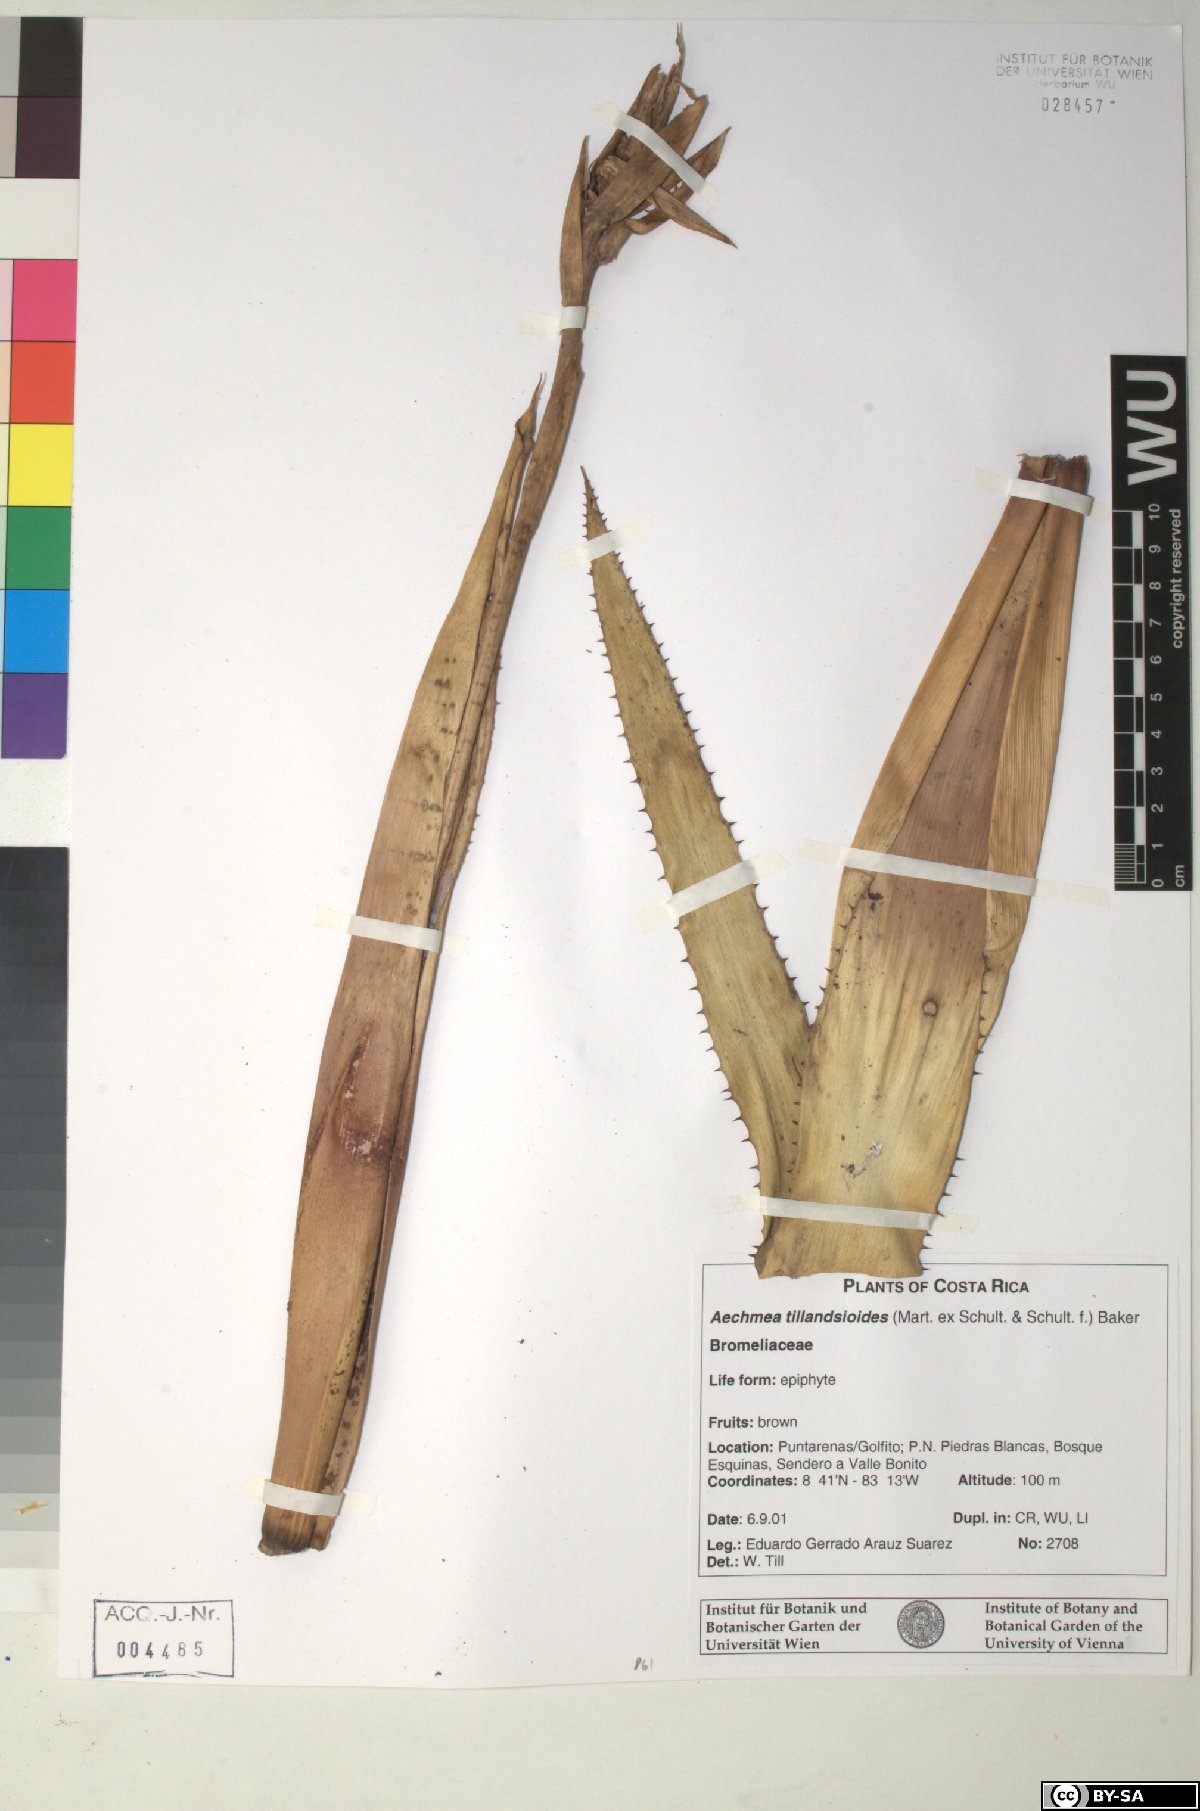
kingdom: Plantae
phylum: Tracheophyta
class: Liliopsida
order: Poales
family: Bromeliaceae
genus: Aechmea
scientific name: Aechmea tillandsioides
